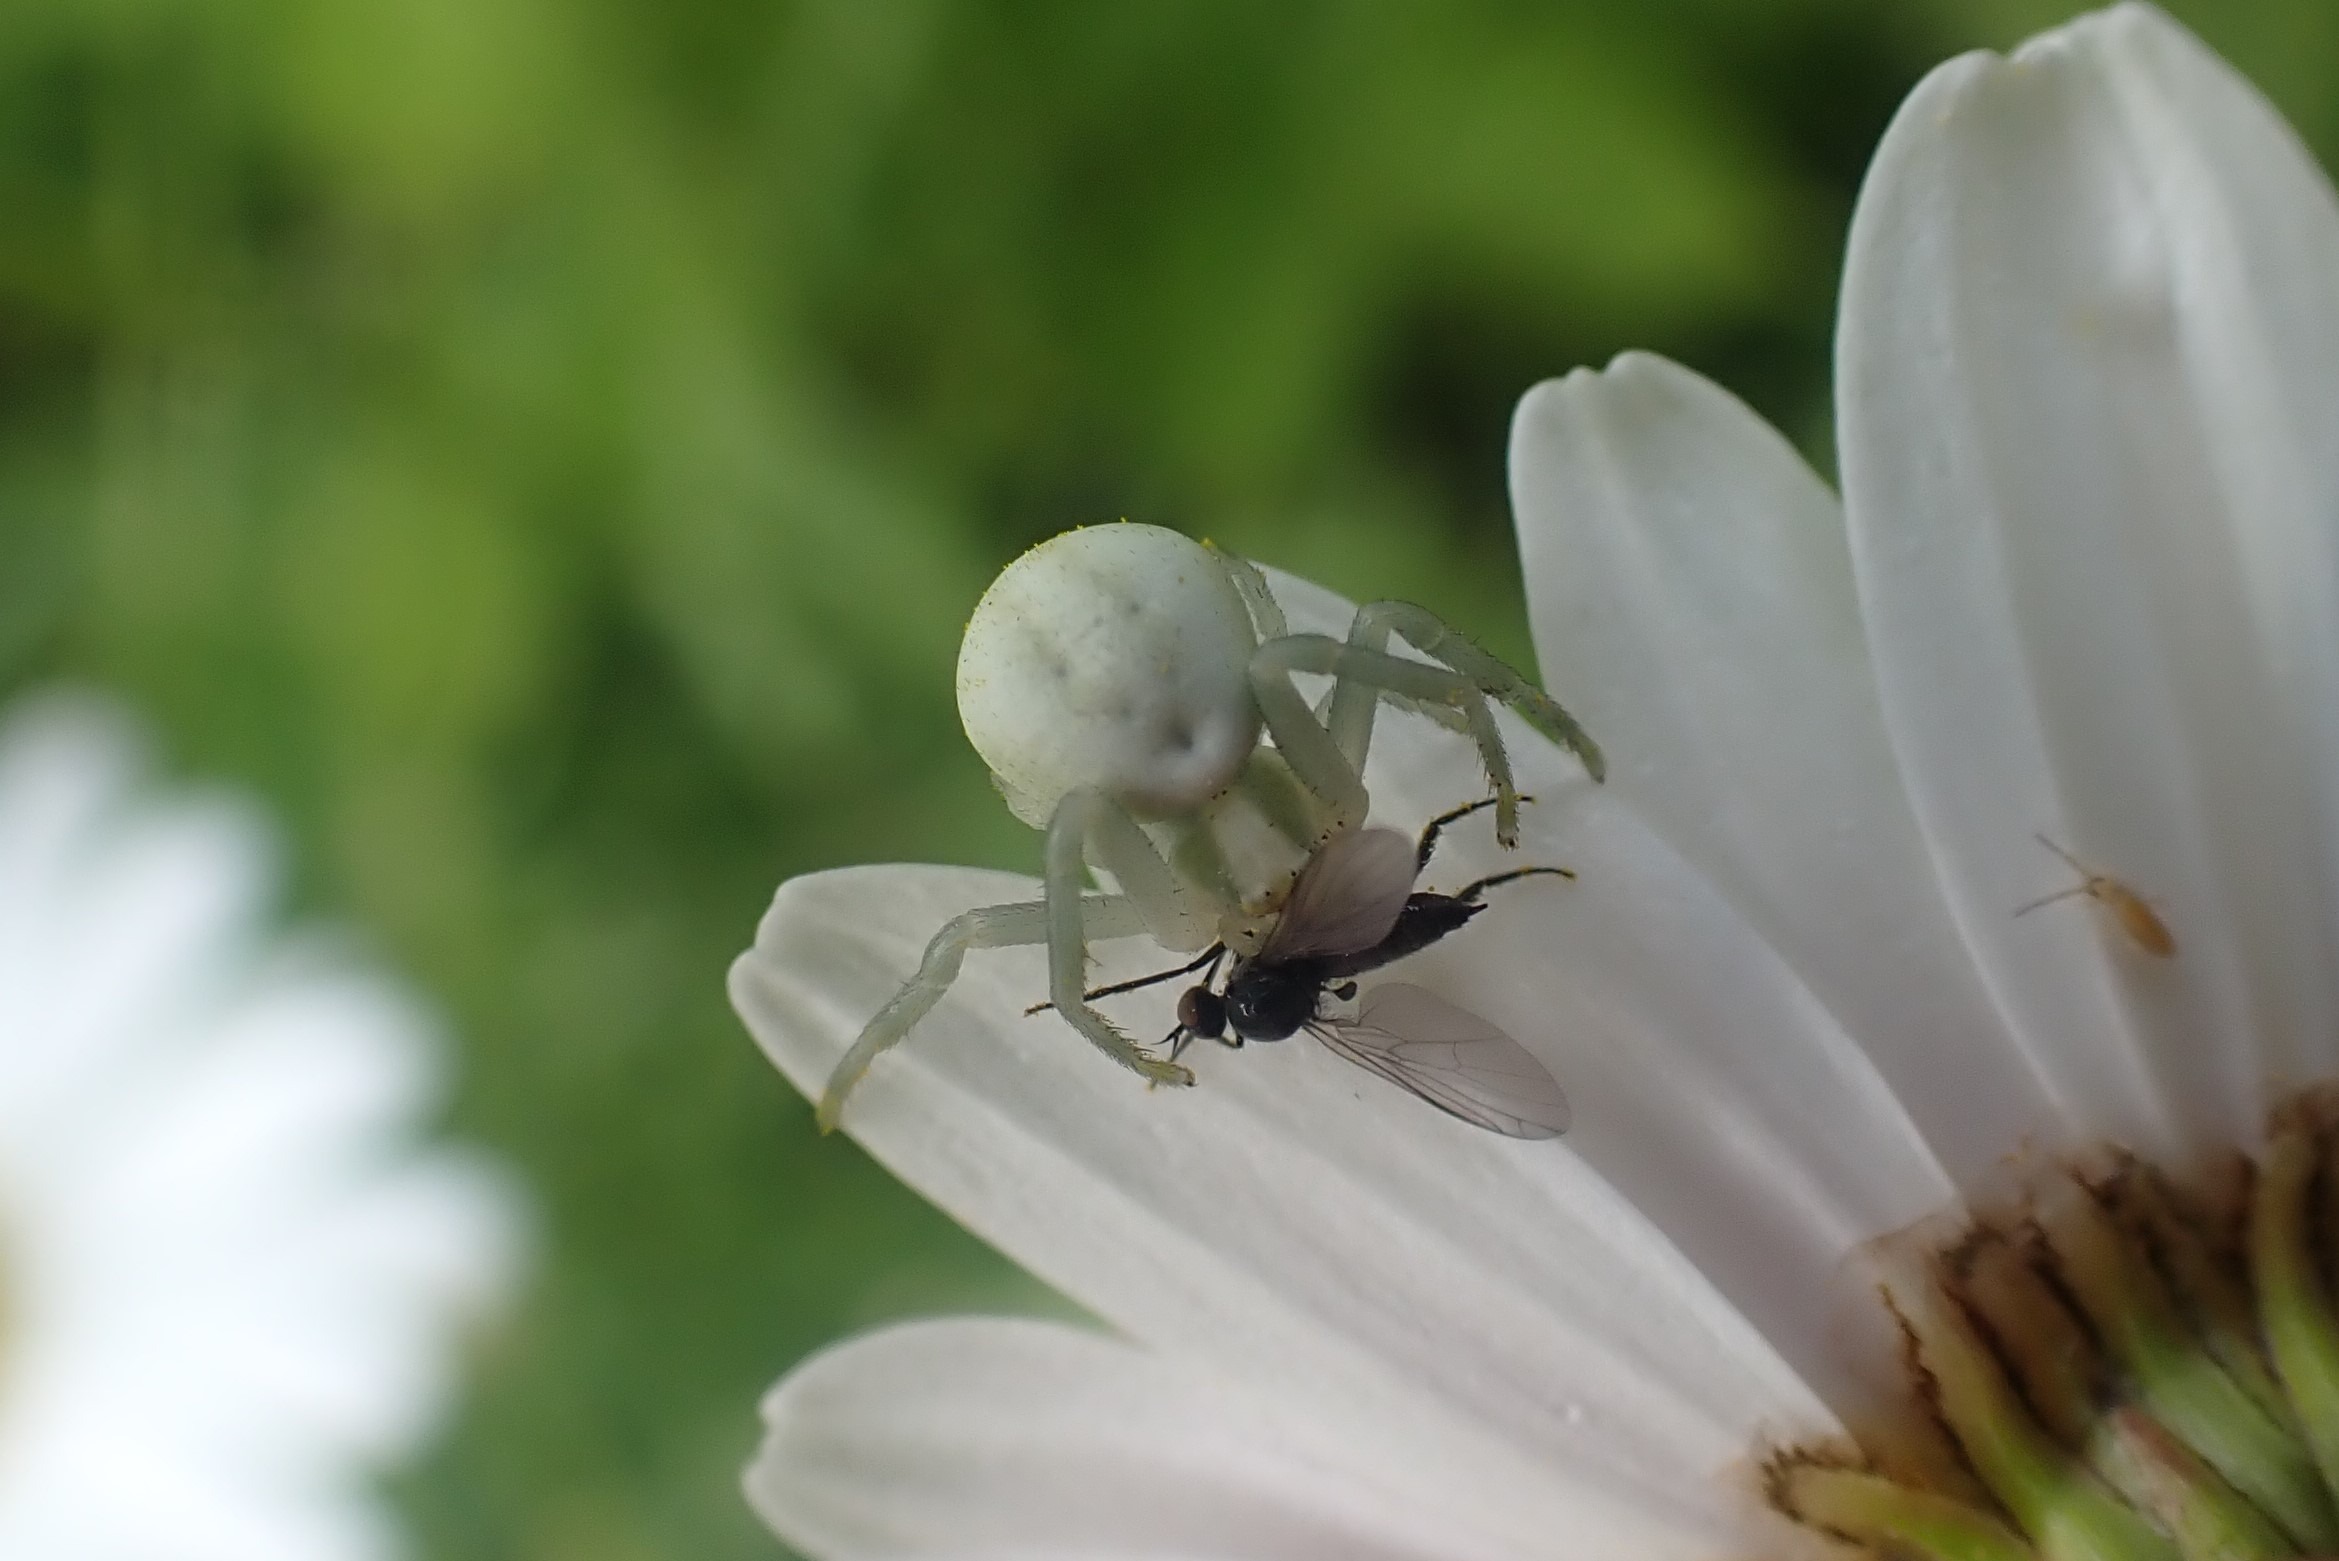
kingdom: Animalia
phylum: Arthropoda
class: Arachnida
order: Araneae
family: Thomisidae
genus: Misumena
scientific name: Misumena vatia
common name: Kamæleonedderkop
